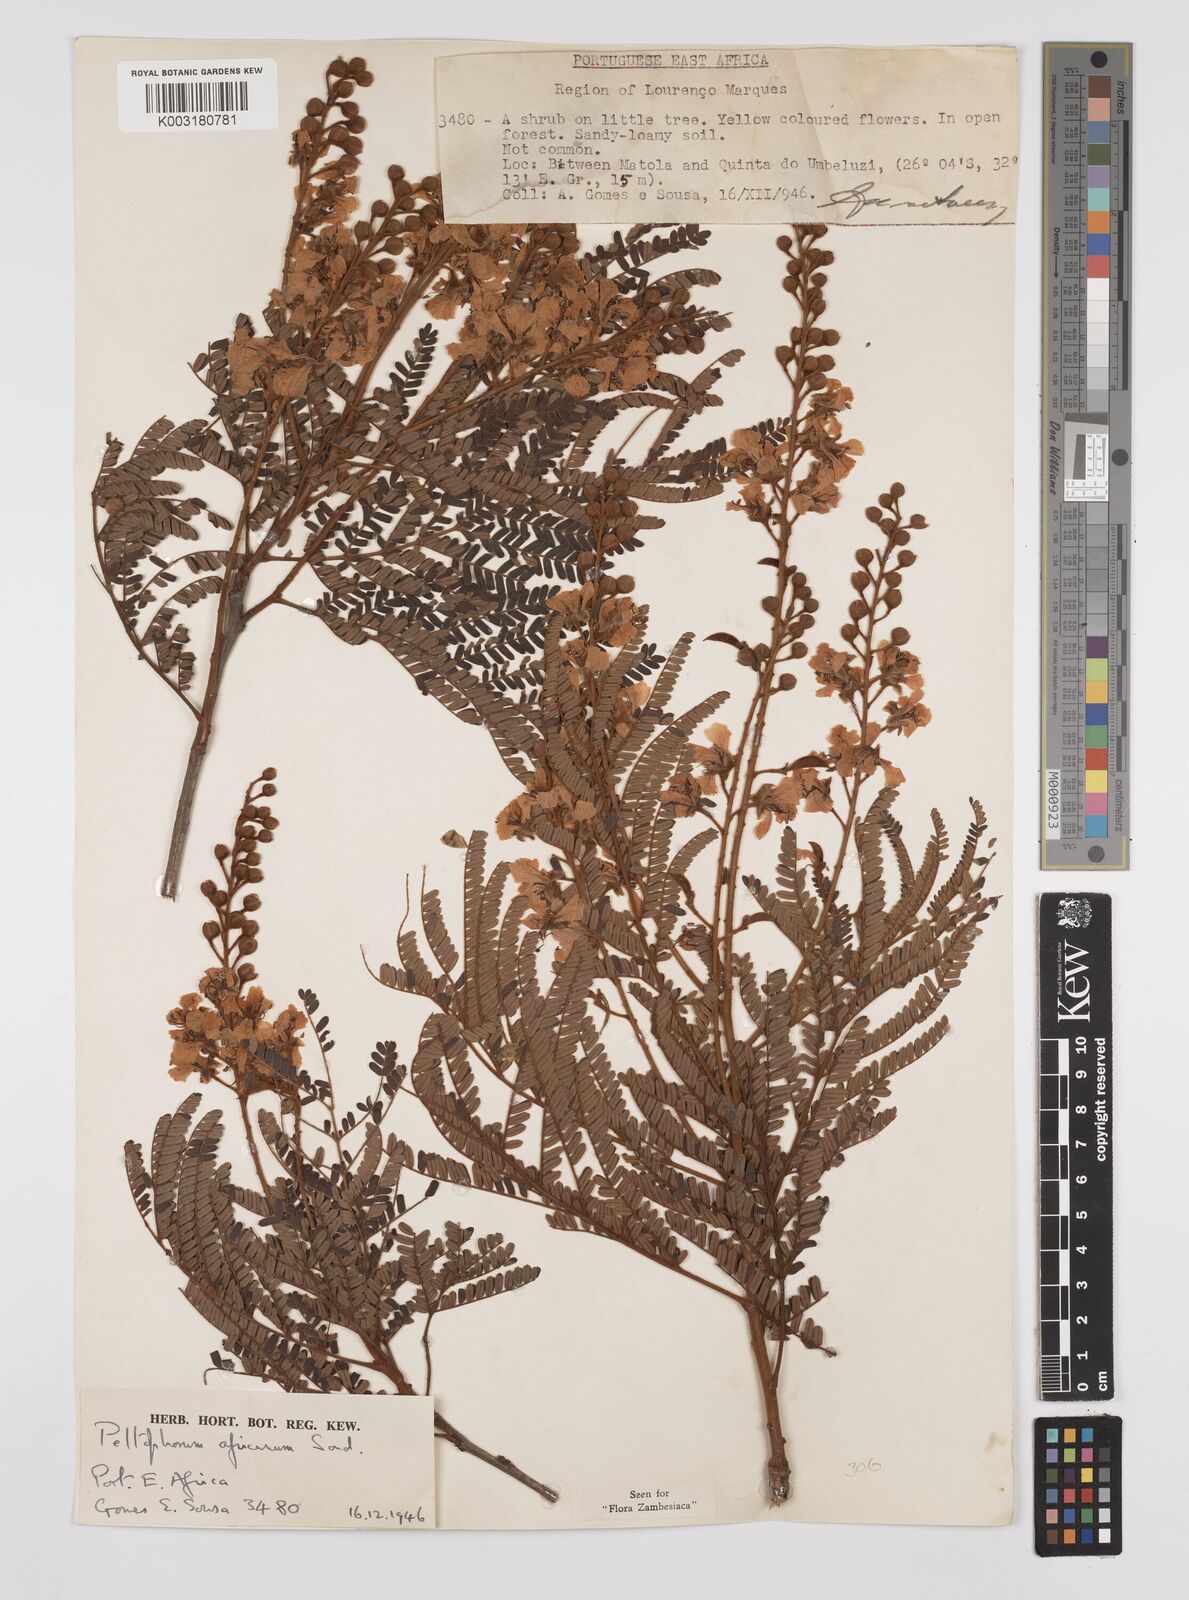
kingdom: Plantae
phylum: Tracheophyta
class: Magnoliopsida
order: Fabales
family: Fabaceae
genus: Peltophorum
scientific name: Peltophorum africanum
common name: African black wattle
